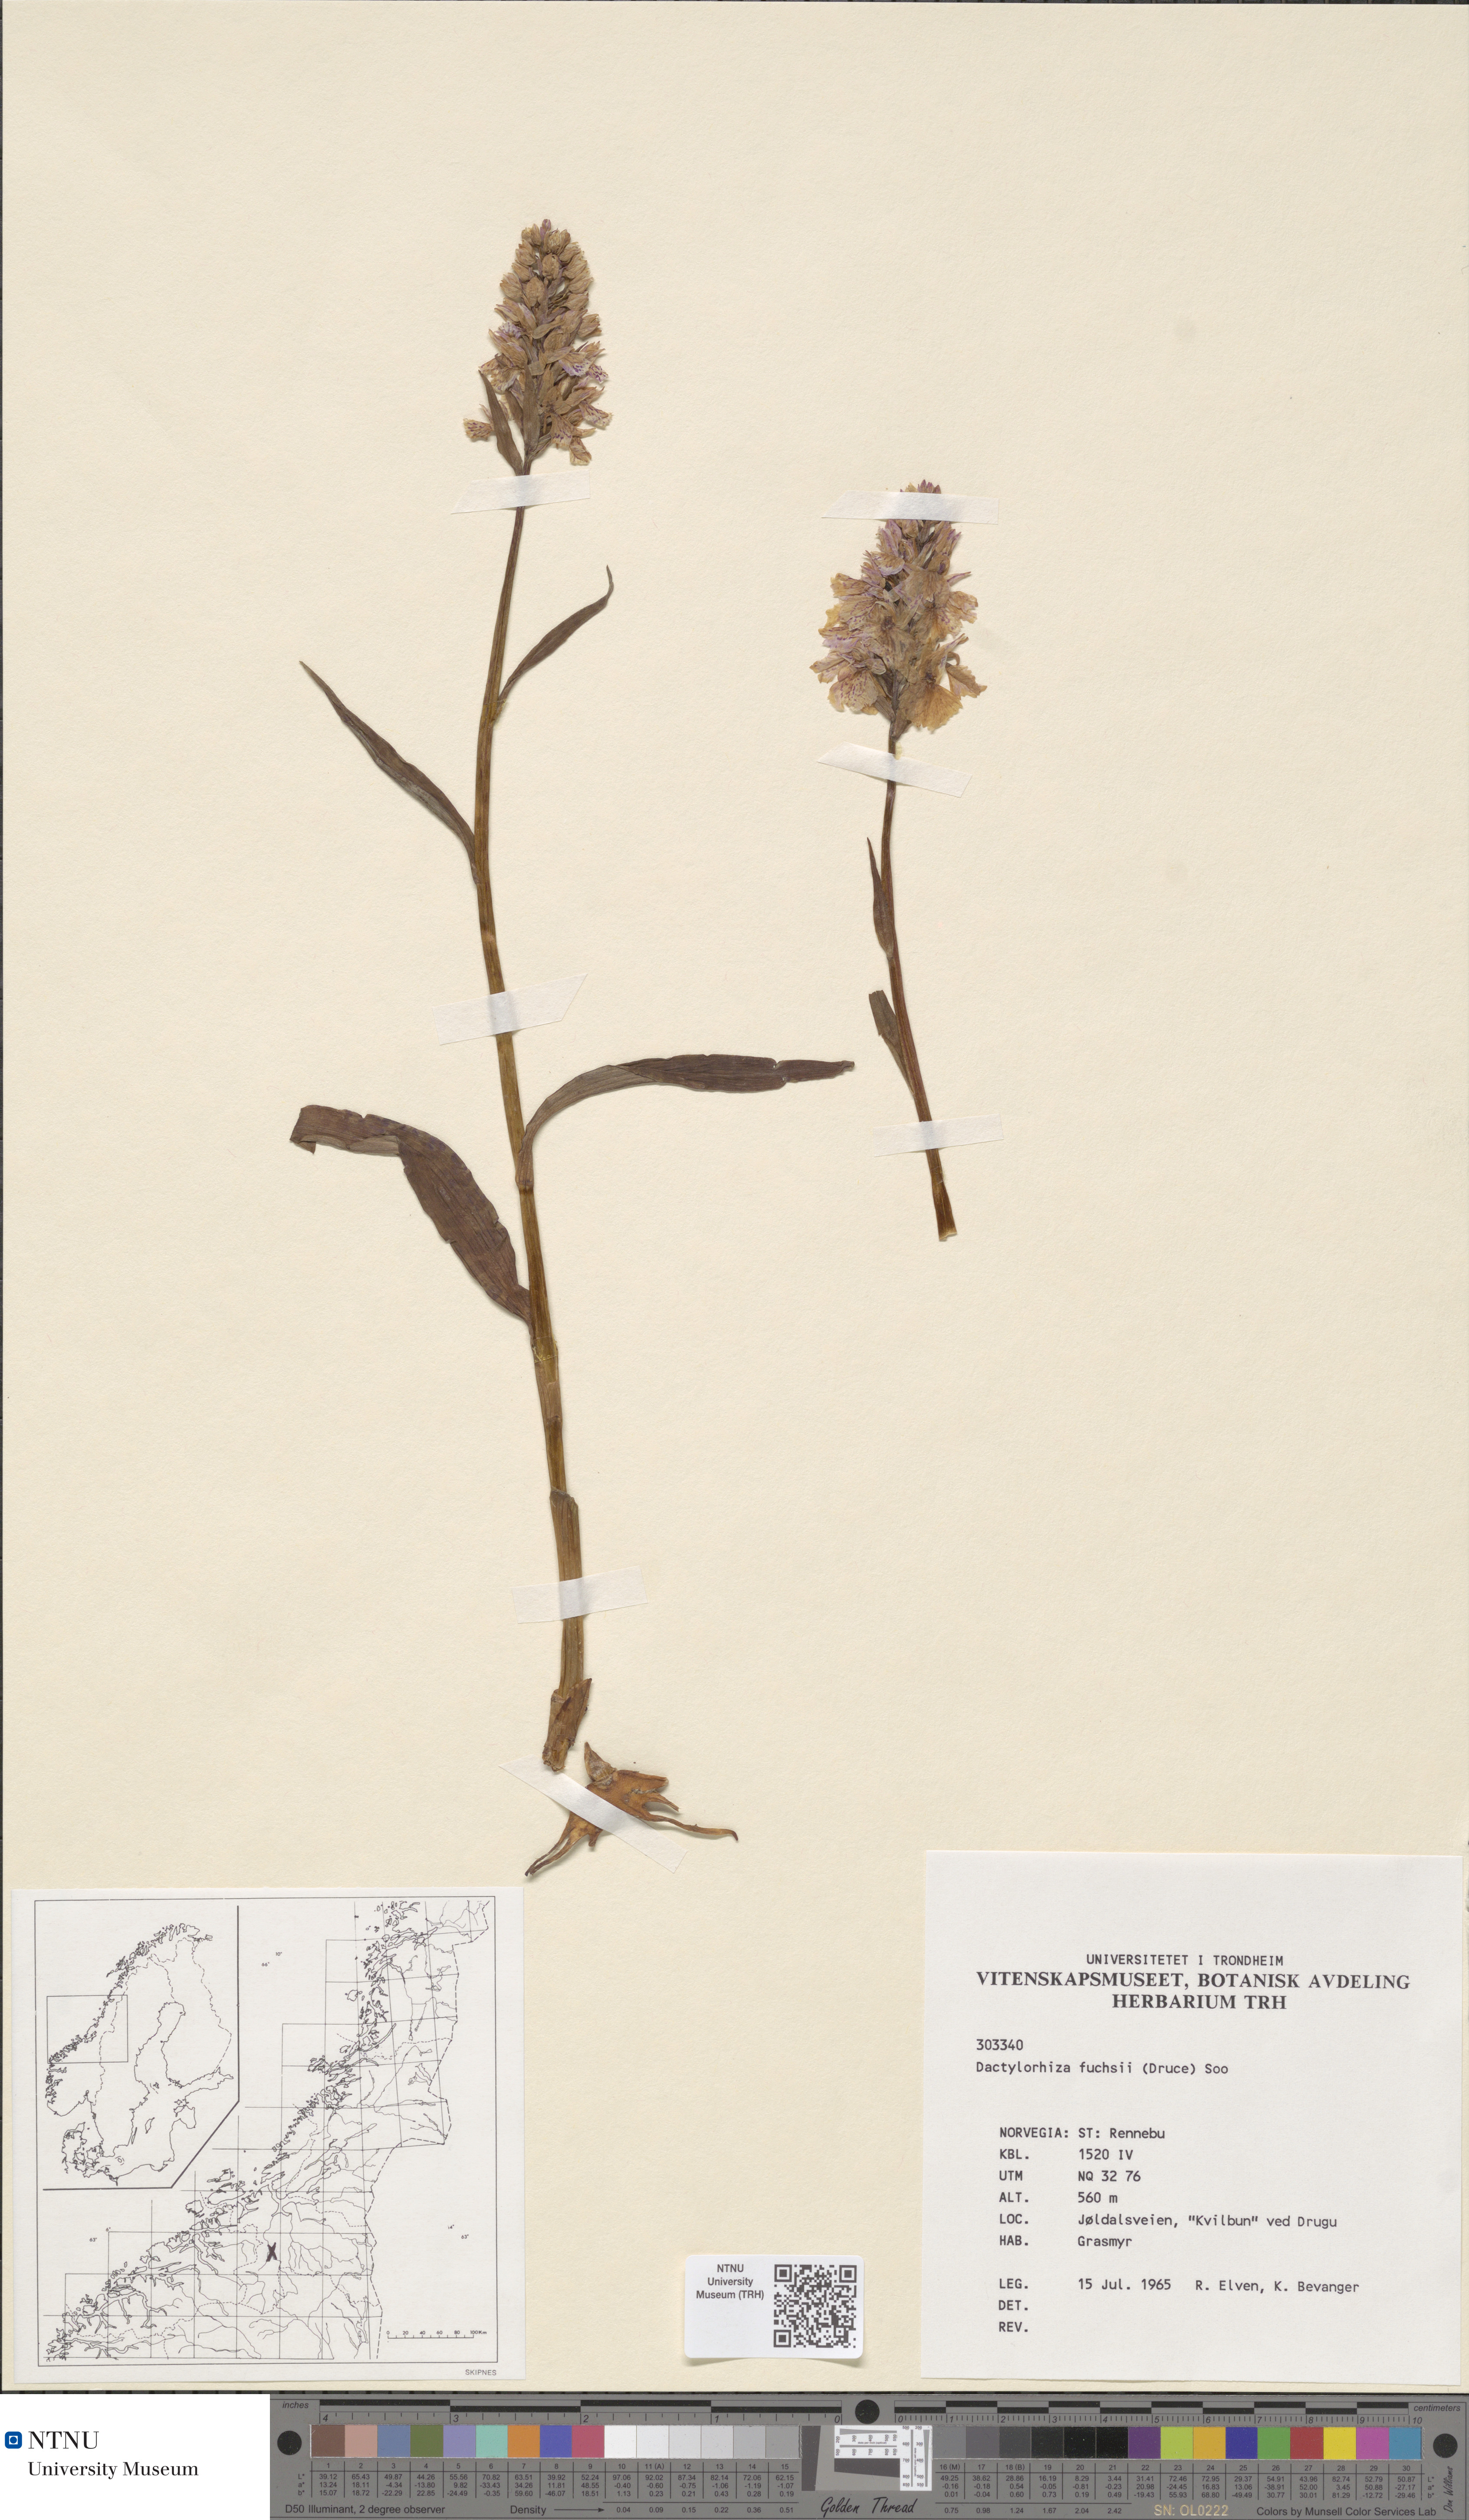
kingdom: Plantae
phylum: Tracheophyta
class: Liliopsida
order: Asparagales
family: Orchidaceae
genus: Dactylorhiza
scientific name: Dactylorhiza maculata
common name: Heath spotted-orchid
